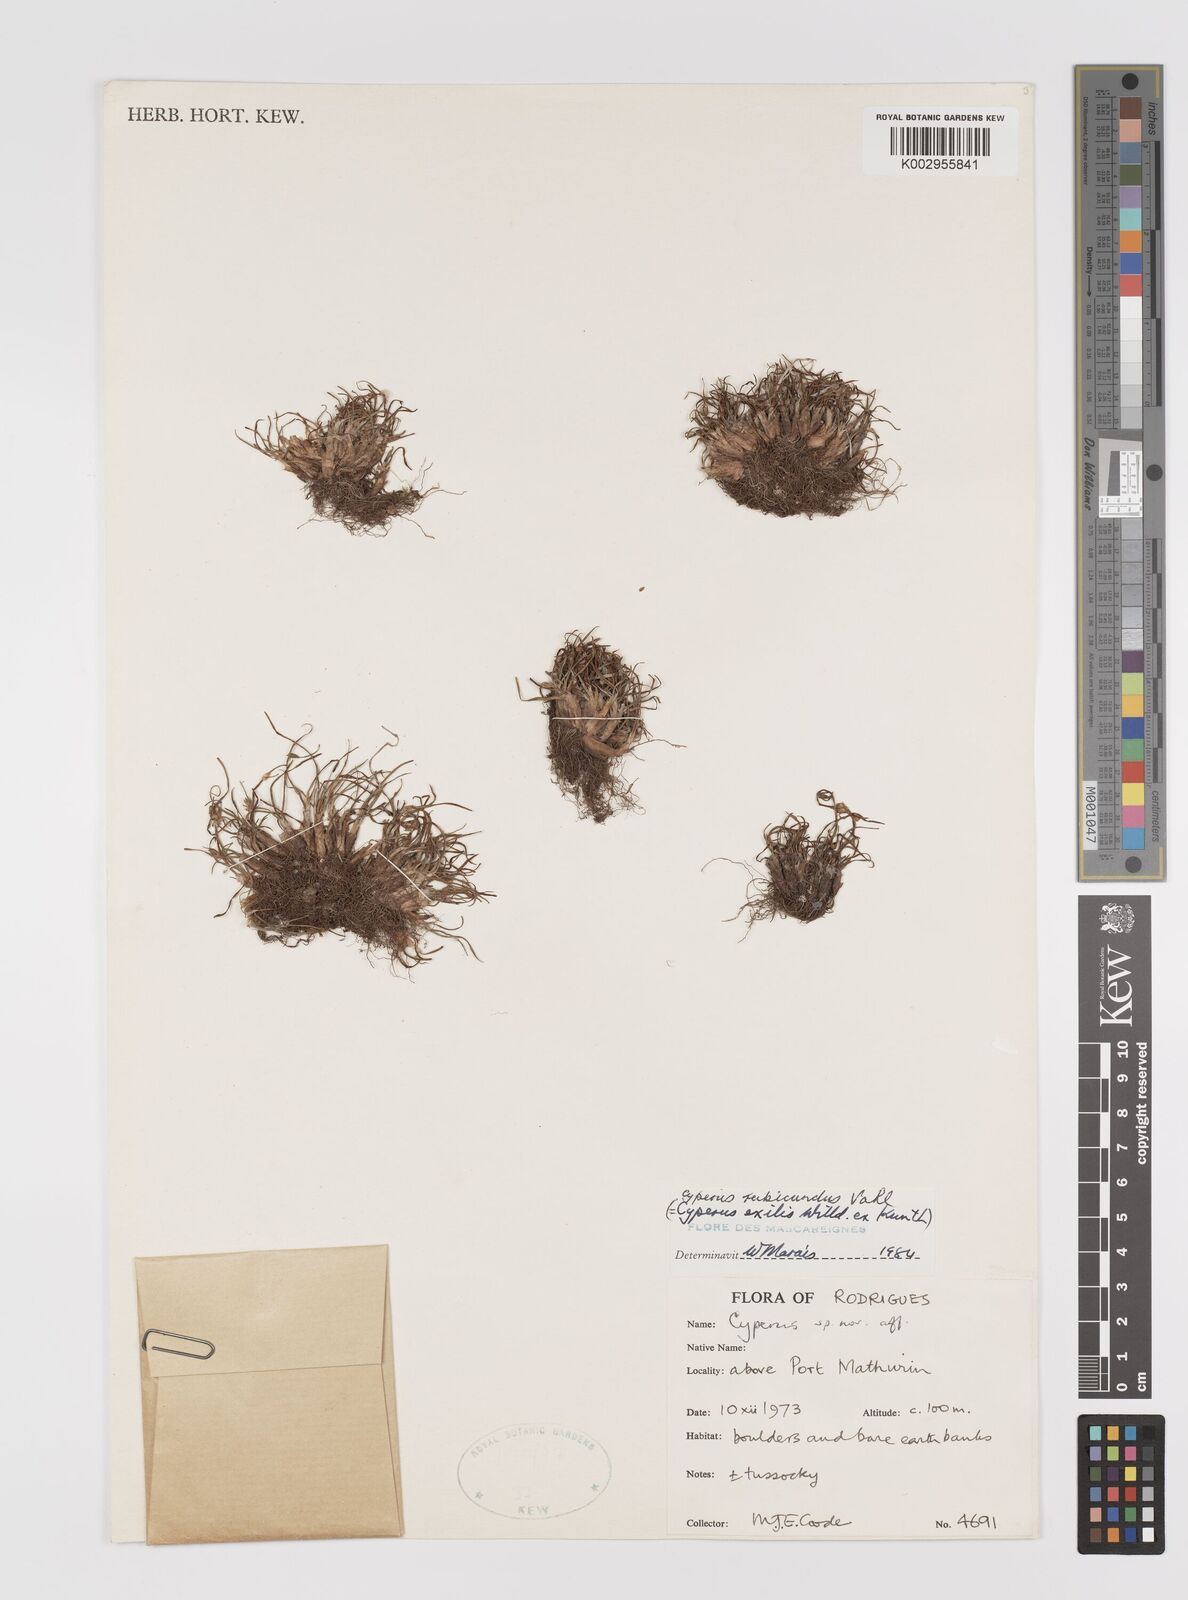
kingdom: Plantae
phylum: Tracheophyta
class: Liliopsida
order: Poales
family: Cyperaceae
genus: Cyperus
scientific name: Cyperus rotundus
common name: Nutgrass
